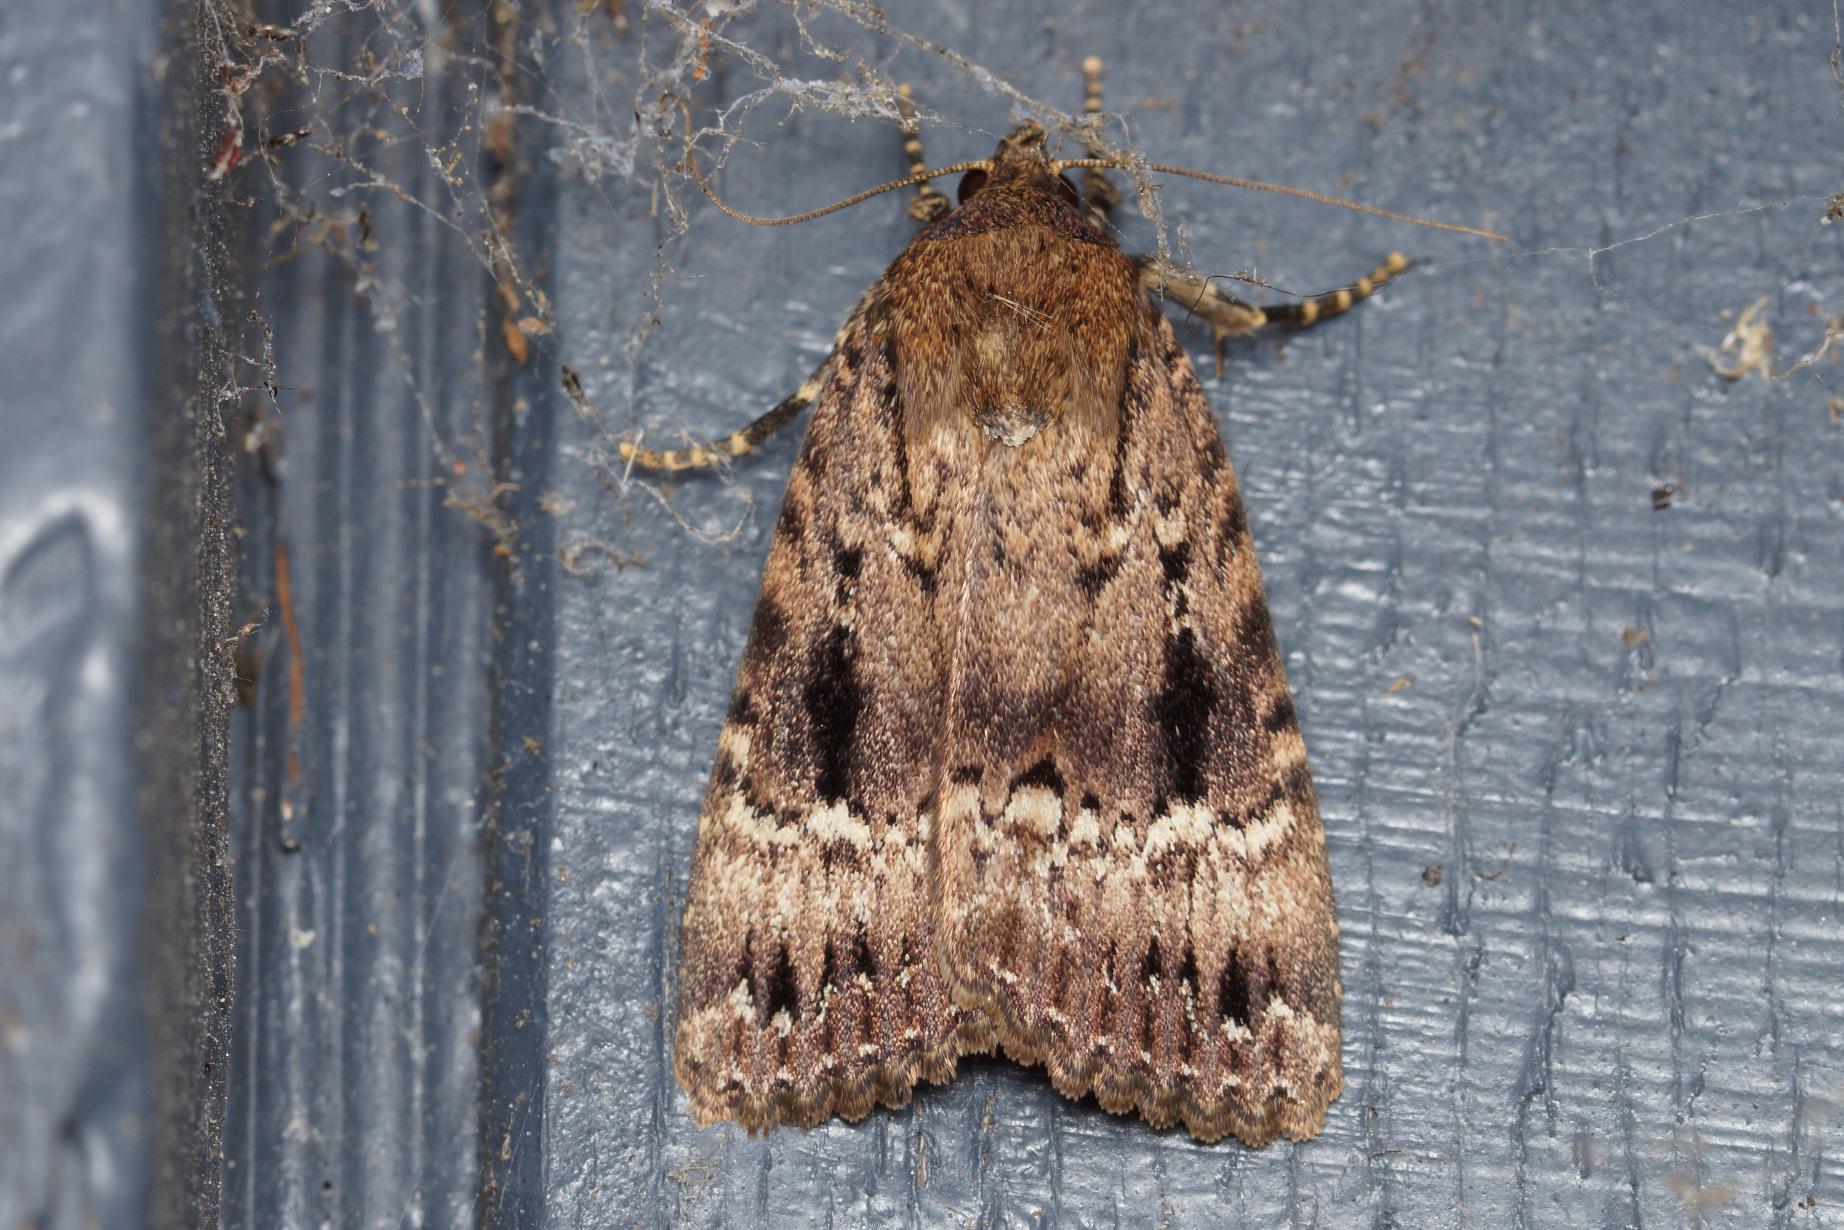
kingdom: Animalia
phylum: Arthropoda
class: Insecta
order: Lepidoptera
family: Noctuidae
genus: Amphipyra
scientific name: Amphipyra pyramidea
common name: Pyramideugle
